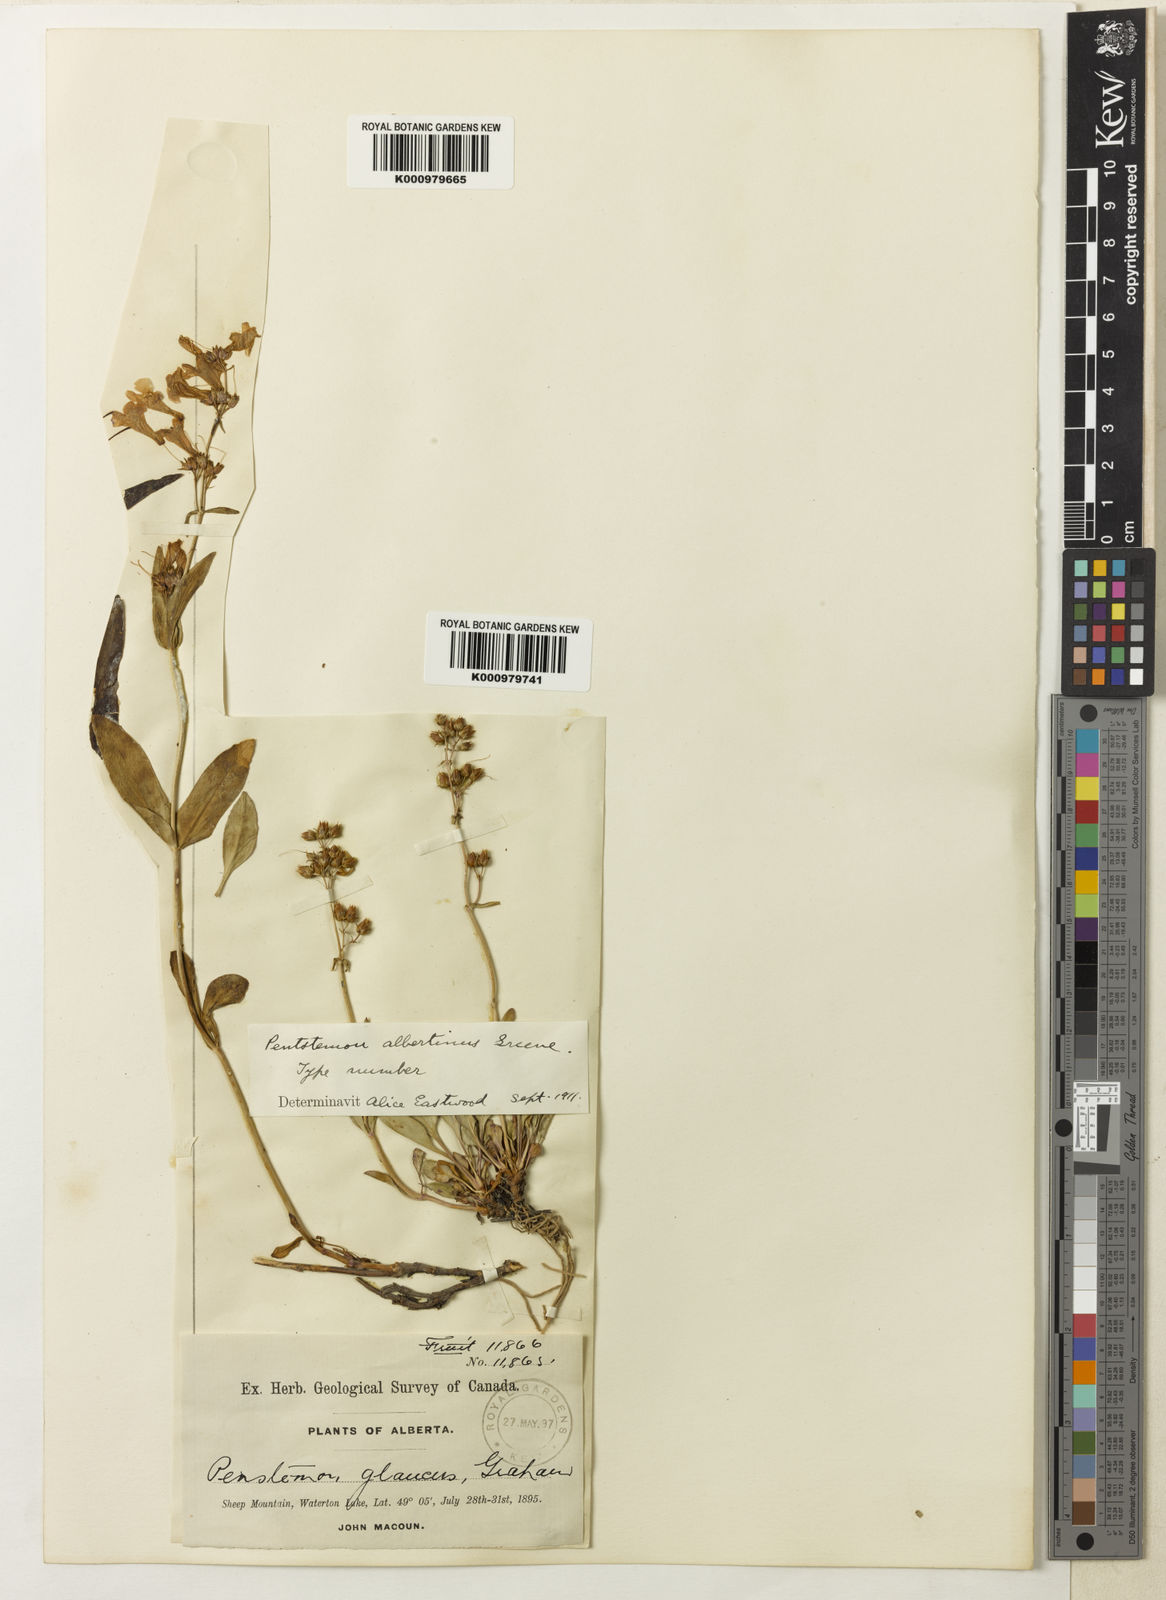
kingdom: Plantae
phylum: Tracheophyta
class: Magnoliopsida
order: Lamiales
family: Plantaginaceae
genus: Penstemon
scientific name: Penstemon humilis
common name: Low penstemon
